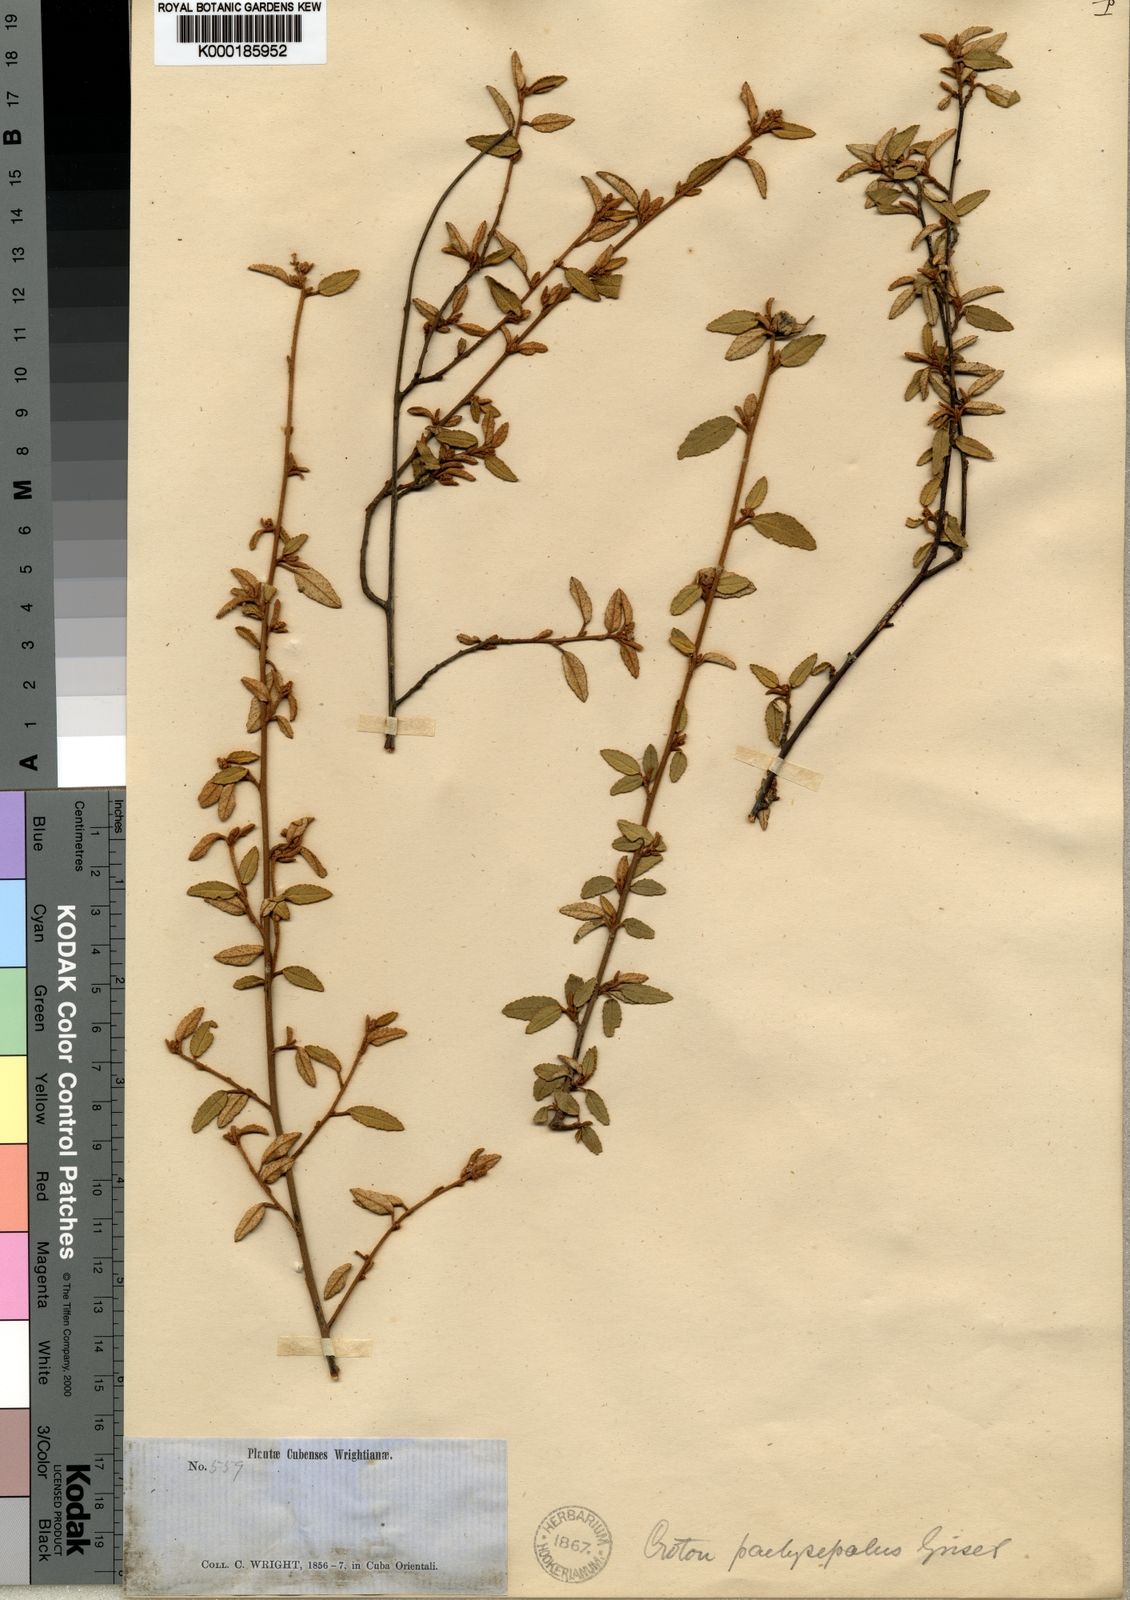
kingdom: Plantae
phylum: Tracheophyta
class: Magnoliopsida
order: Malpighiales
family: Euphorbiaceae
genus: Croton
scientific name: Croton pachysepalus
